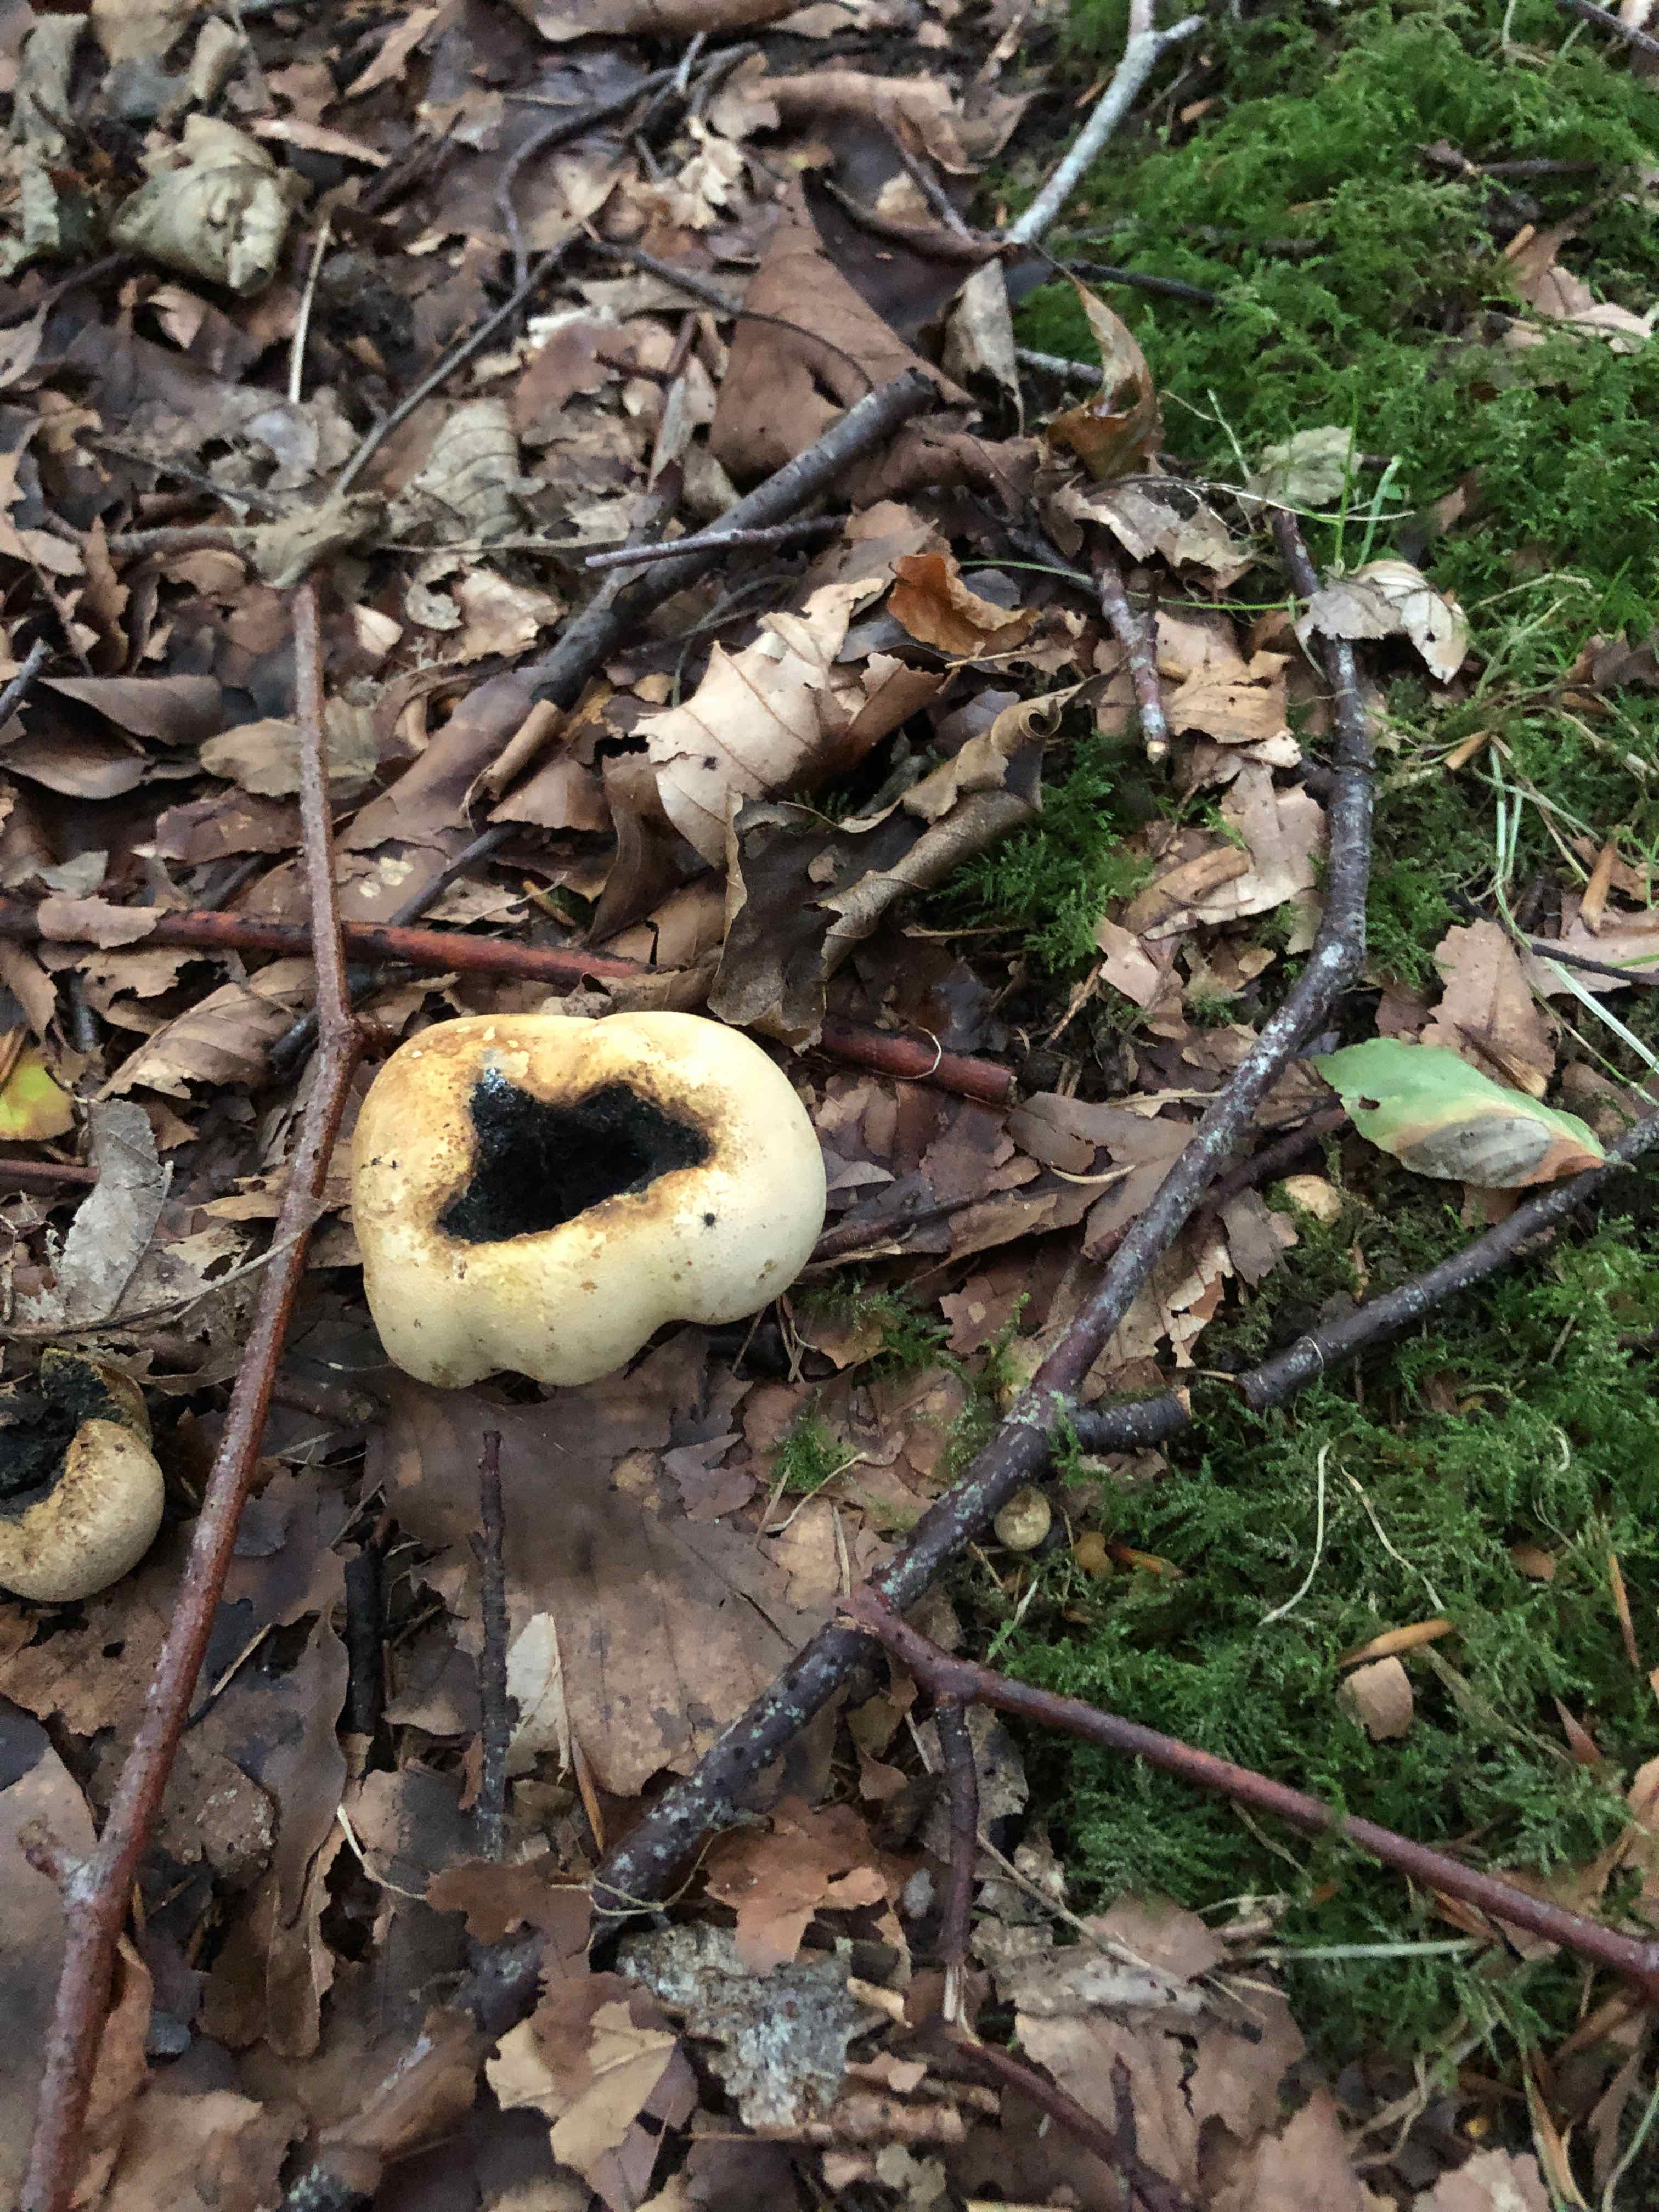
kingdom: Fungi
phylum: Basidiomycota
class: Agaricomycetes
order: Boletales
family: Sclerodermataceae
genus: Scleroderma
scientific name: Scleroderma
